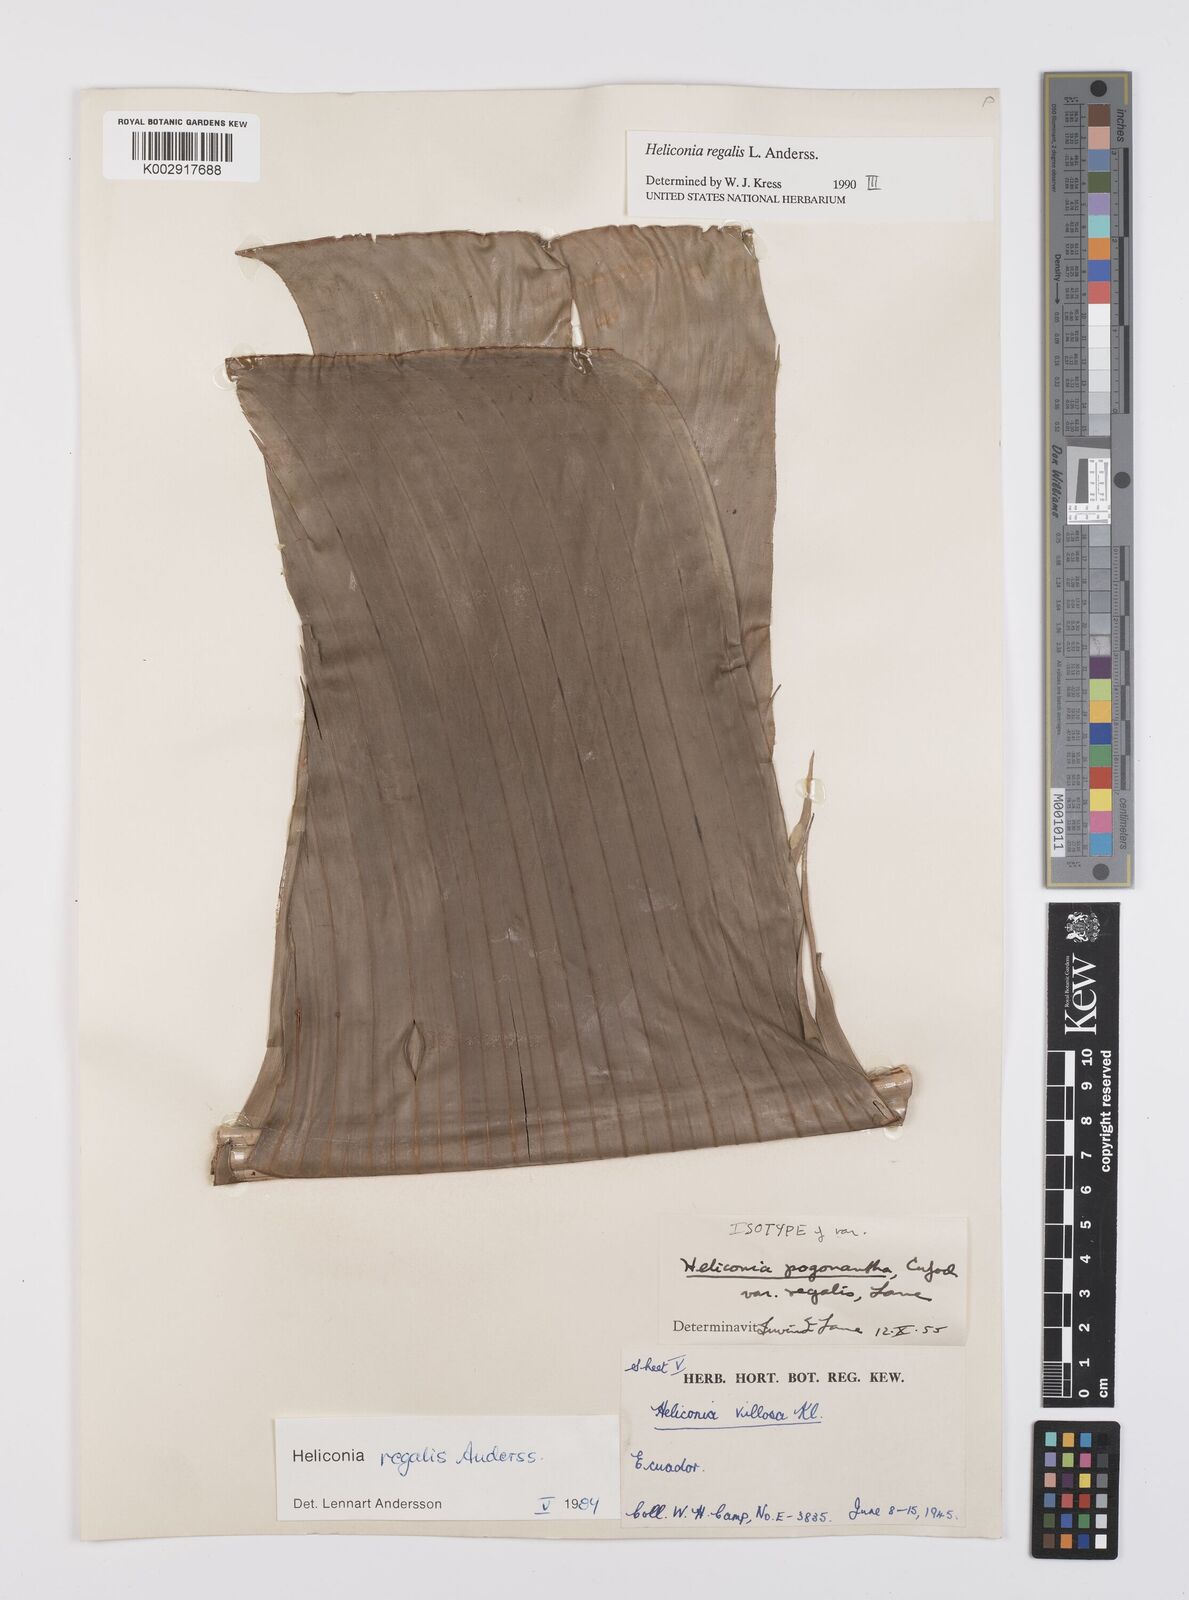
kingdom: Plantae
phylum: Tracheophyta
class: Liliopsida
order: Zingiberales
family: Heliconiaceae
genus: Heliconia
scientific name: Heliconia regalis
